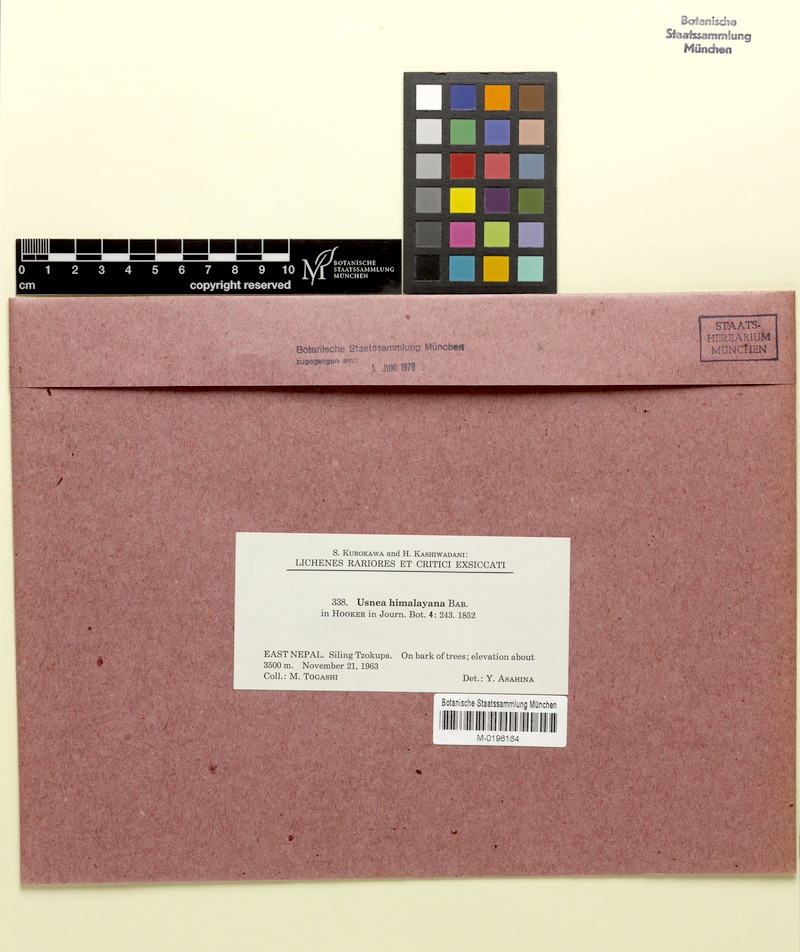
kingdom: Fungi
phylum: Ascomycota
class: Lecanoromycetes
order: Lecanorales
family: Parmeliaceae
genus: Usnea
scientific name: Usnea himalayana
